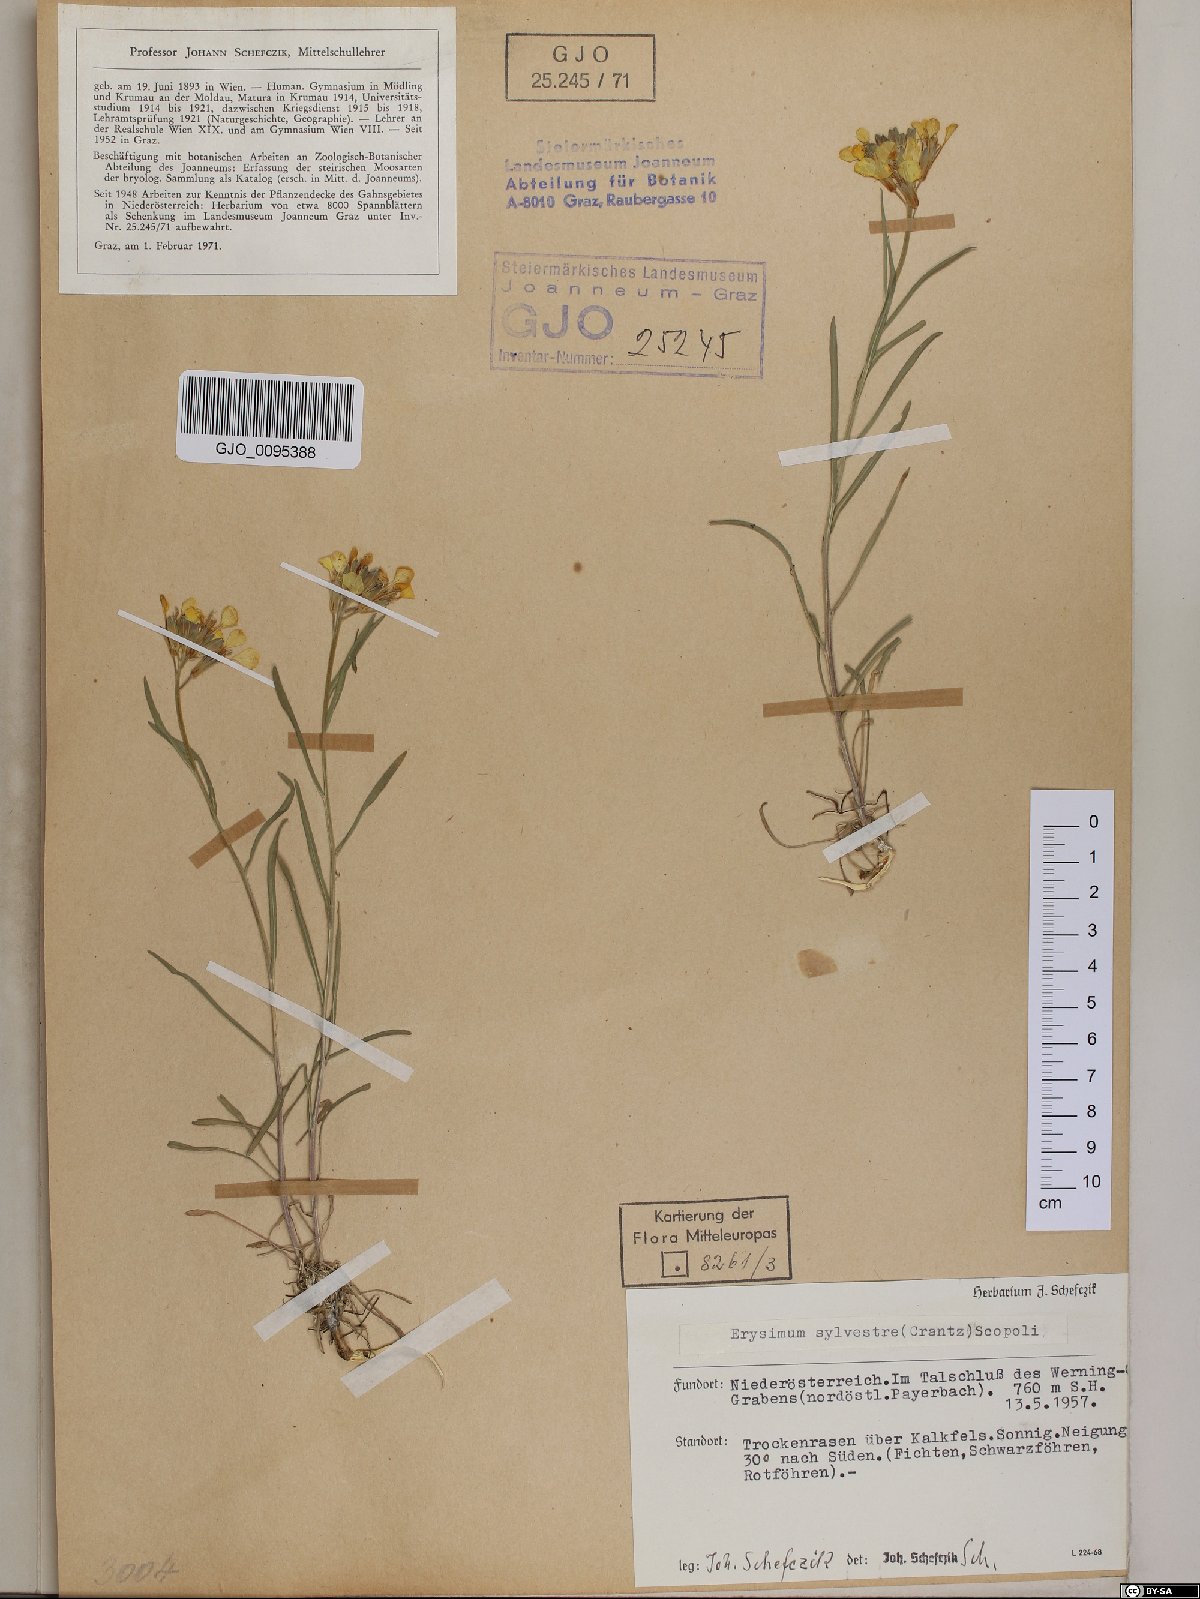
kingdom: Plantae
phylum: Tracheophyta
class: Magnoliopsida
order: Brassicales
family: Brassicaceae
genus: Erysimum
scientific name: Erysimum sylvestre
